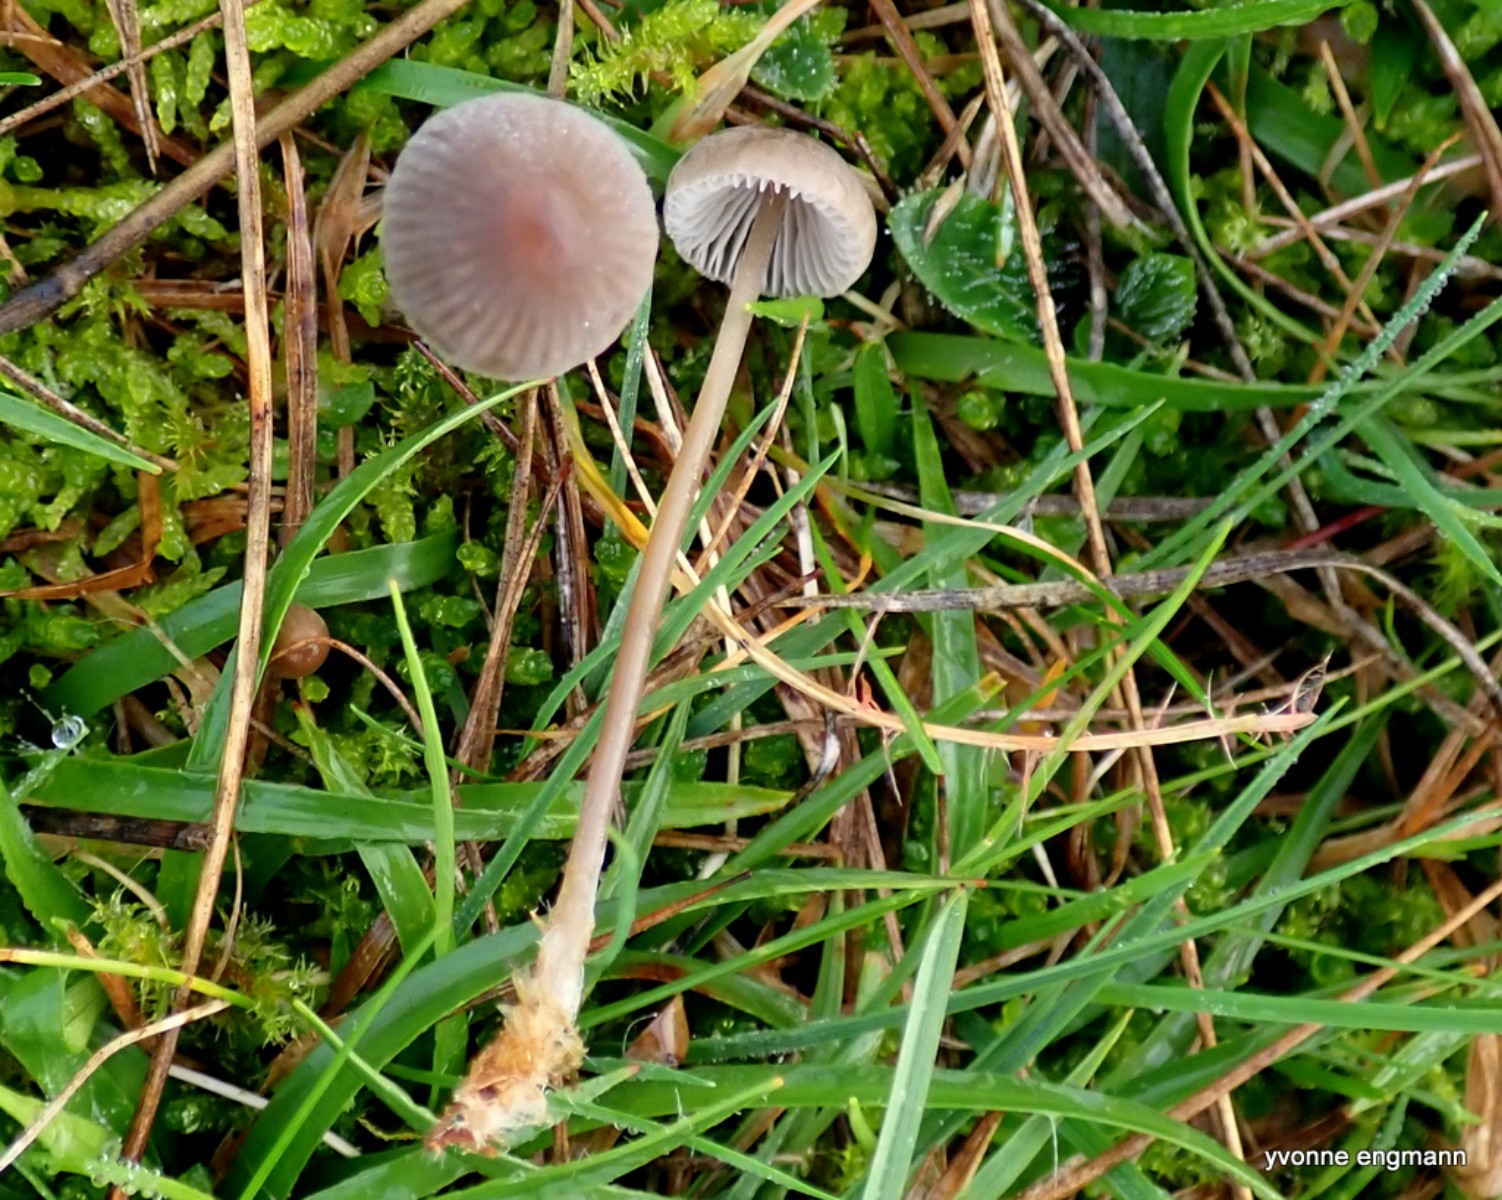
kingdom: Fungi
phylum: Basidiomycota
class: Agaricomycetes
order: Agaricales
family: Mycenaceae
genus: Mycena
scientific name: Mycena aetites
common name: plæne-huesvamp
